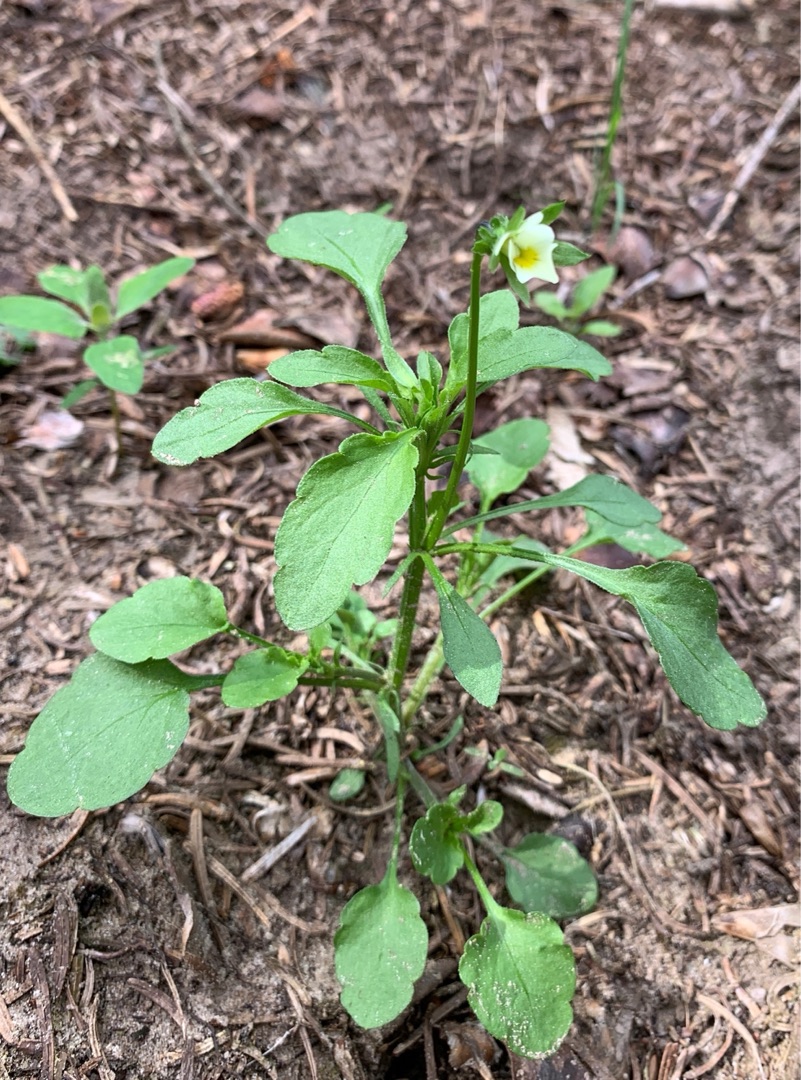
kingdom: Plantae
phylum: Tracheophyta
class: Magnoliopsida
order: Malpighiales
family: Violaceae
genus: Viola
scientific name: Viola arvensis
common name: Ager-stedmoderblomst
